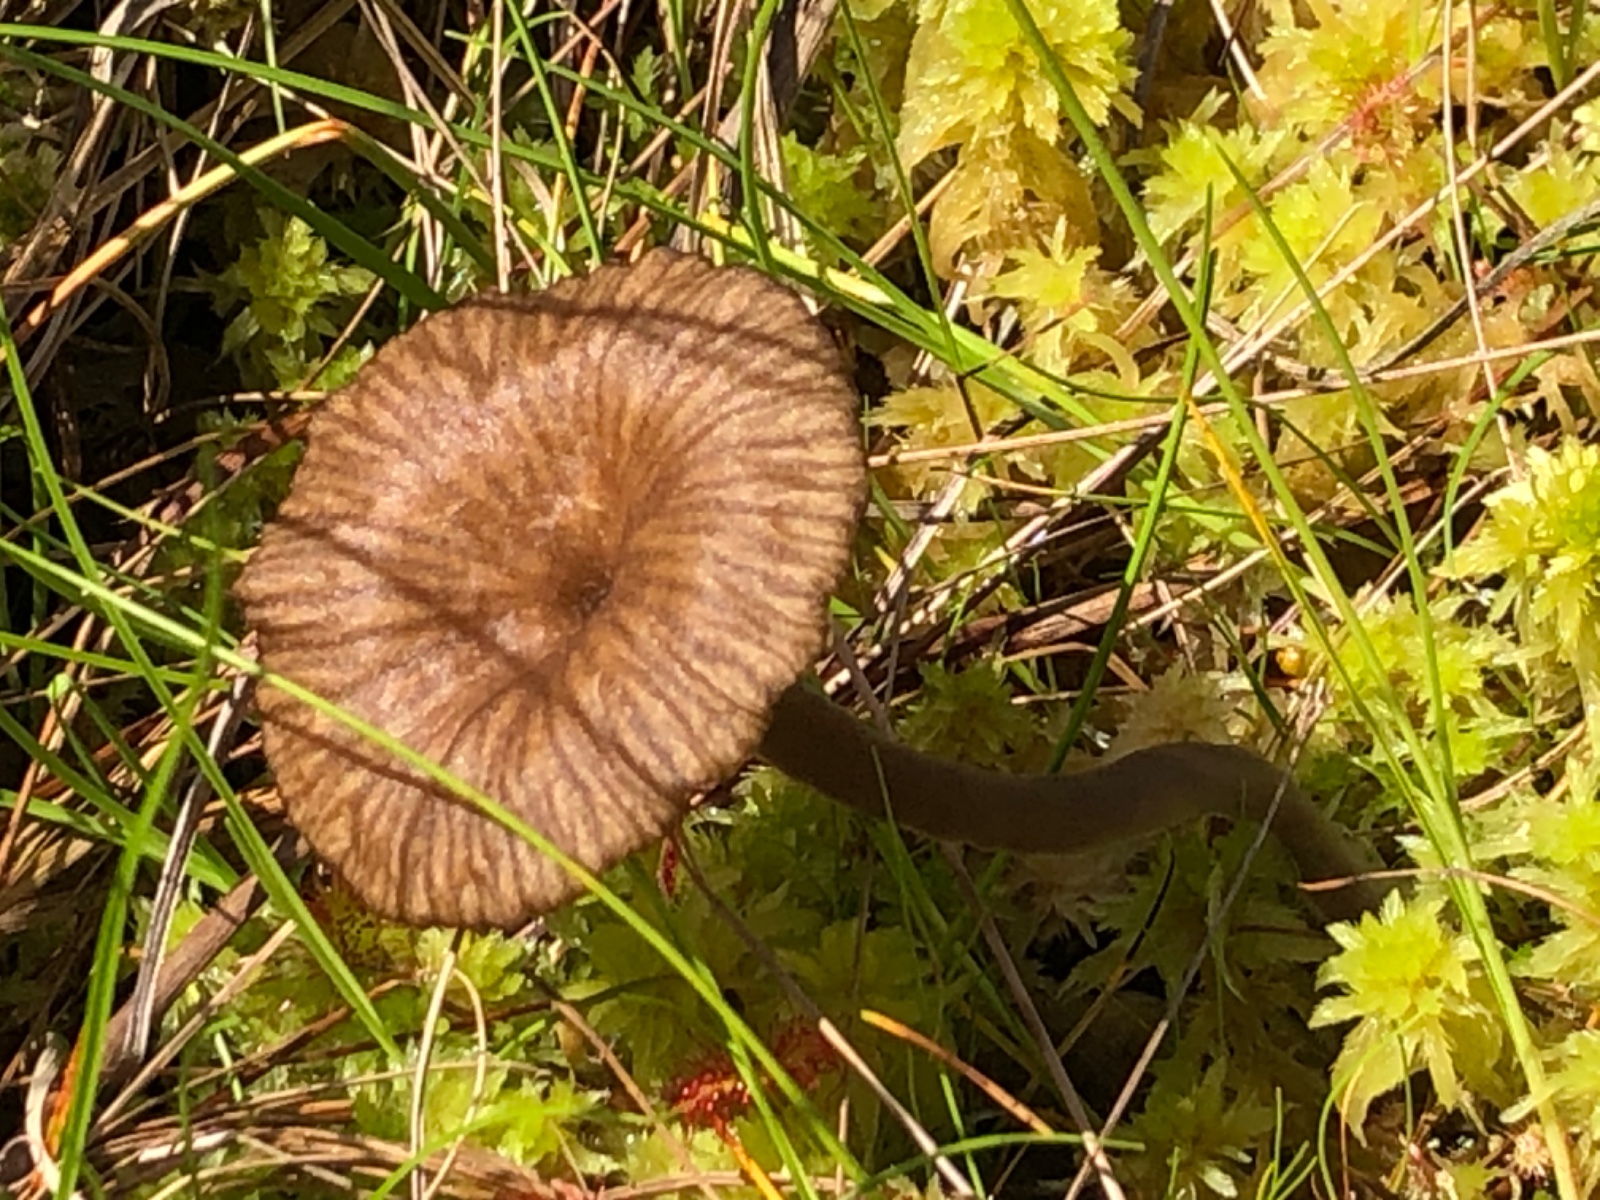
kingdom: Fungi
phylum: Basidiomycota
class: Agaricomycetes
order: Agaricales
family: Hygrophoraceae
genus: Arrhenia
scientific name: Arrhenia gerardiana
